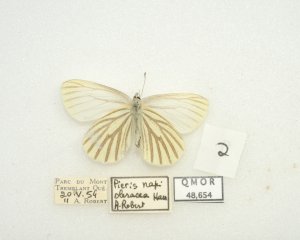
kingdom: Animalia
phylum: Arthropoda
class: Insecta
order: Lepidoptera
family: Pieridae
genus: Pieris
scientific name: Pieris oleracea
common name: Mustard White
